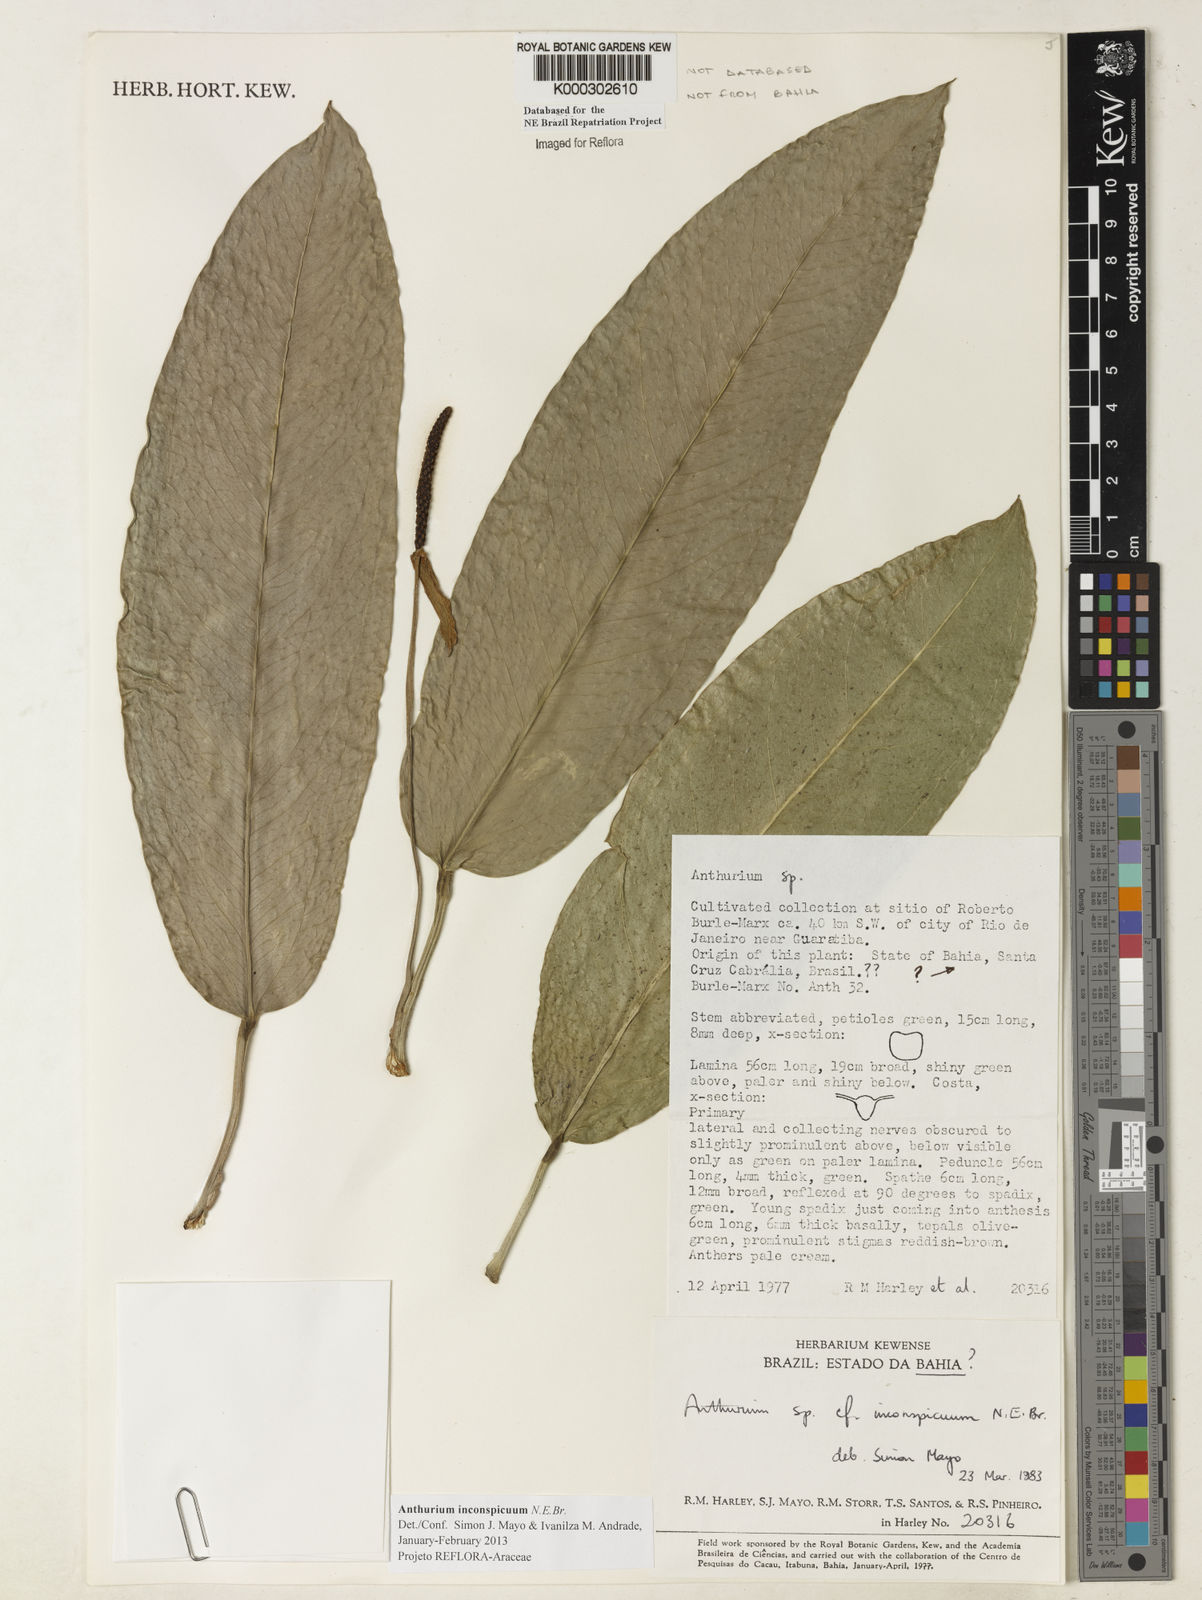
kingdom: Plantae
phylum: Tracheophyta
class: Liliopsida
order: Alismatales
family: Araceae
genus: Anthurium
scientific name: Anthurium inconspicuum
